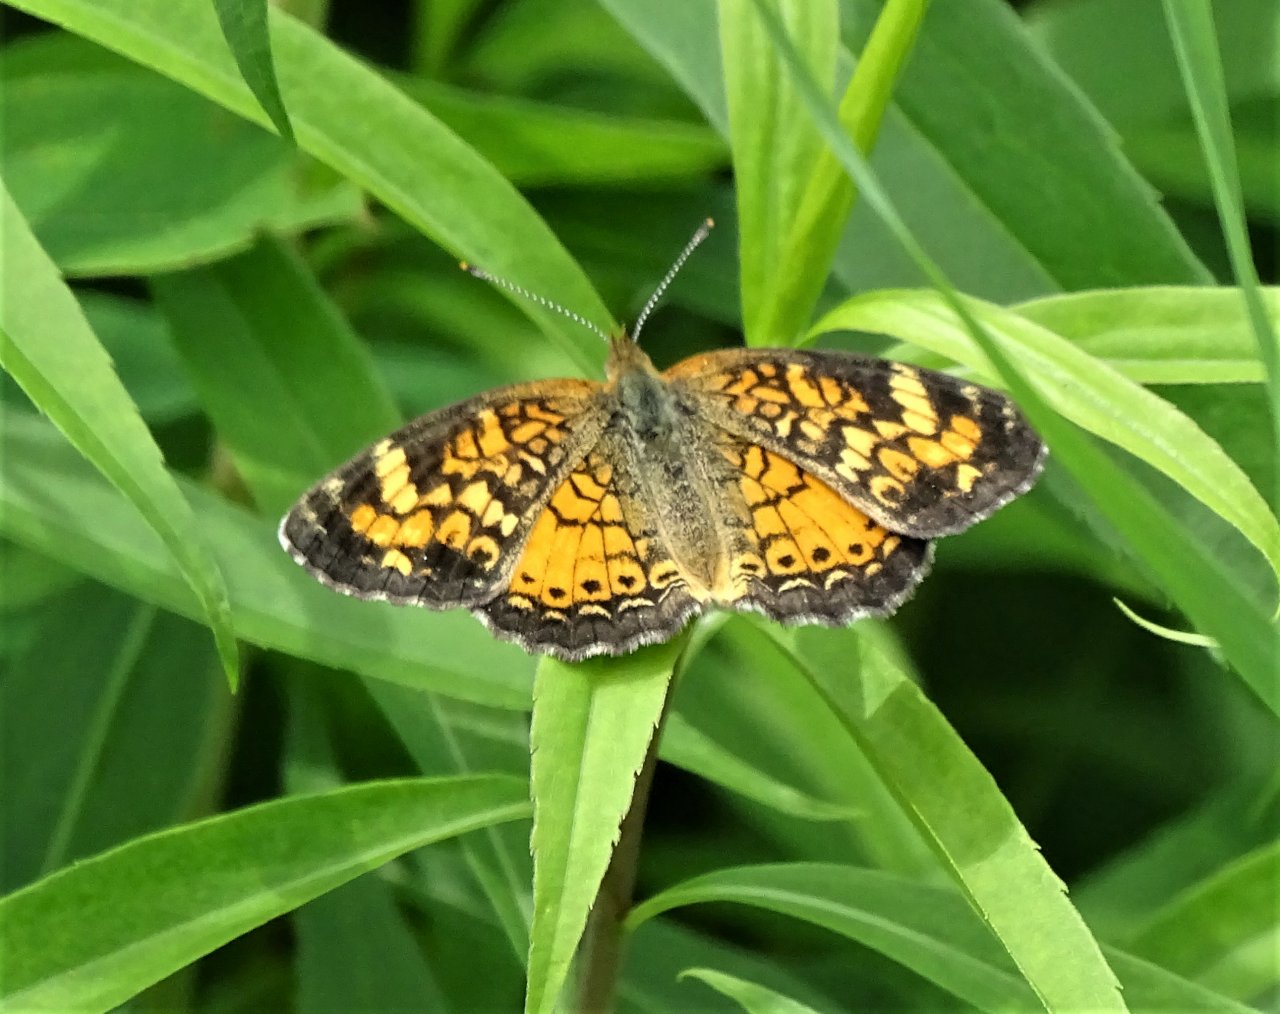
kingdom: Animalia
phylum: Arthropoda
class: Insecta
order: Lepidoptera
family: Nymphalidae
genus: Phyciodes
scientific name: Phyciodes
